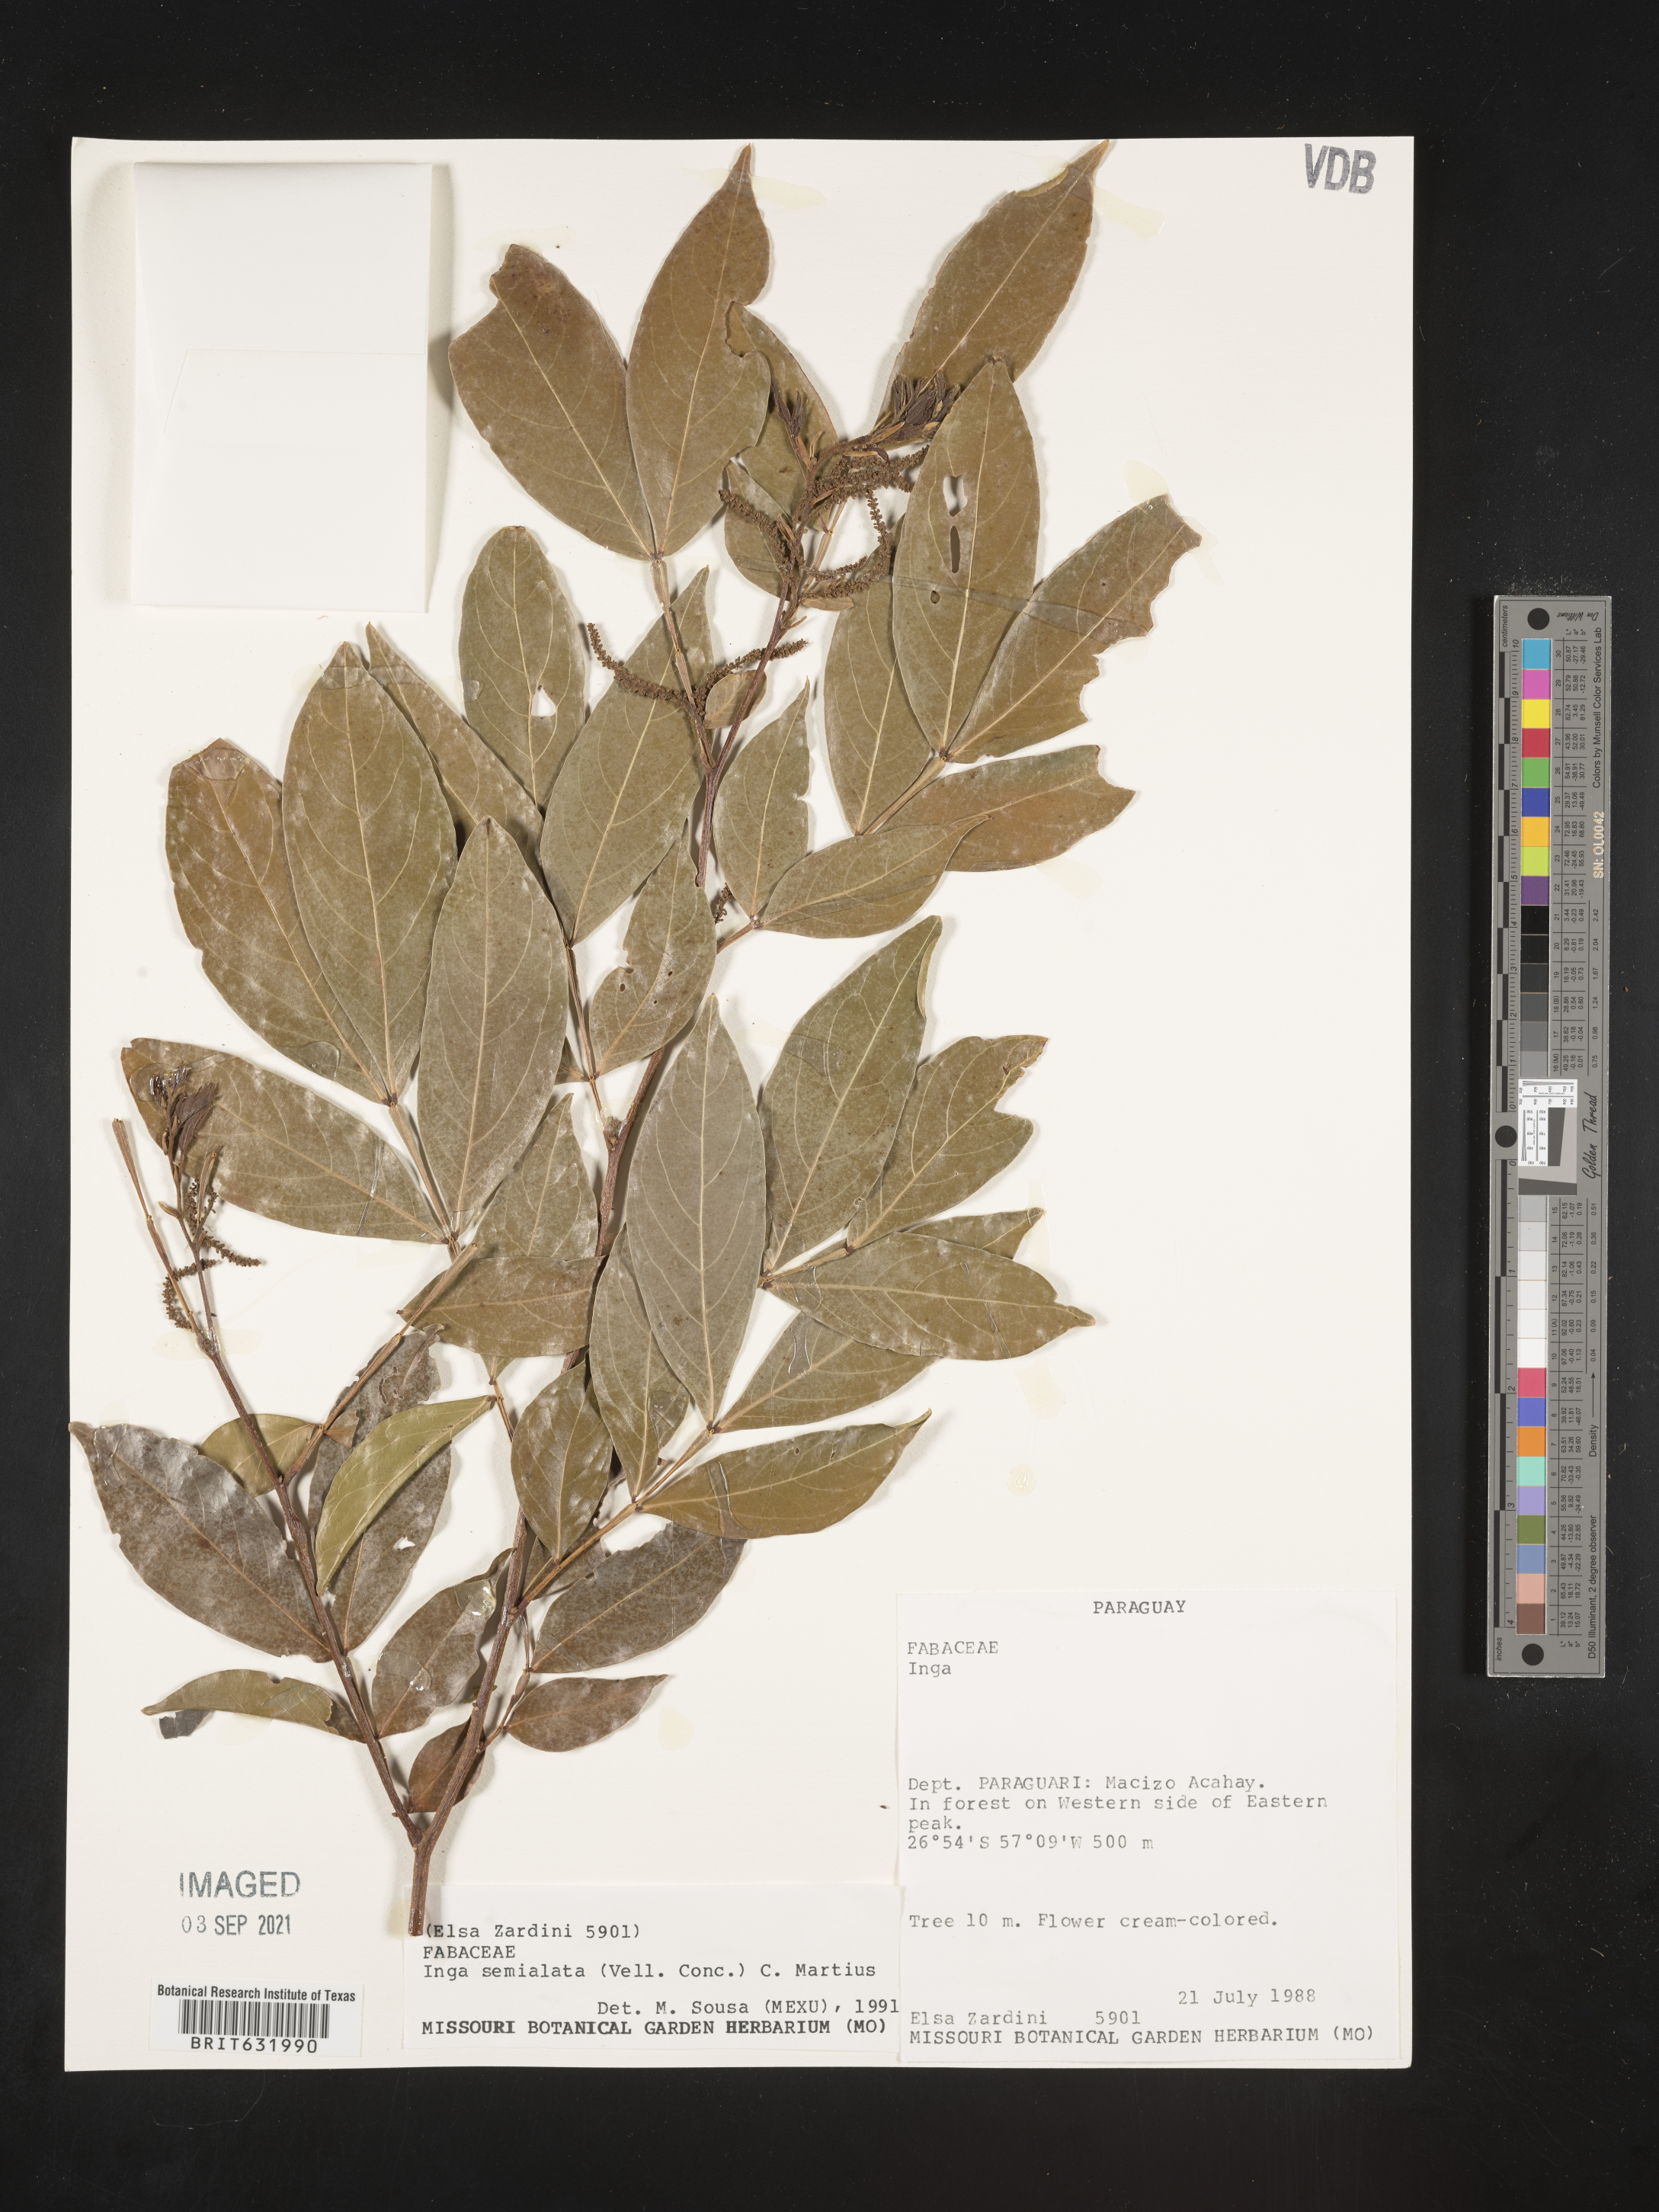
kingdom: Plantae
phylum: Tracheophyta
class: Magnoliopsida
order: Fabales
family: Fabaceae
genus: Inga
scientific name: Inga
